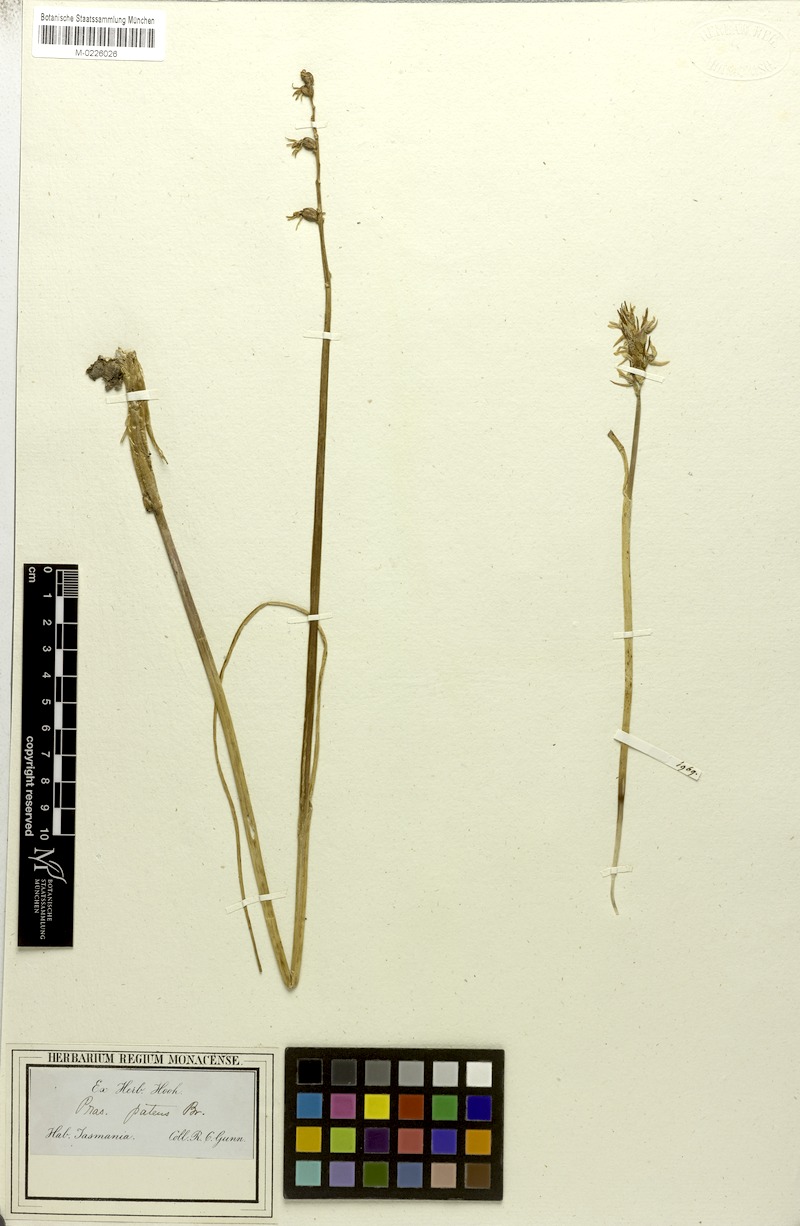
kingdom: Plantae
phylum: Tracheophyta
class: Liliopsida
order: Asparagales
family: Orchidaceae
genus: Prasophyllum
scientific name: Prasophyllum patens
